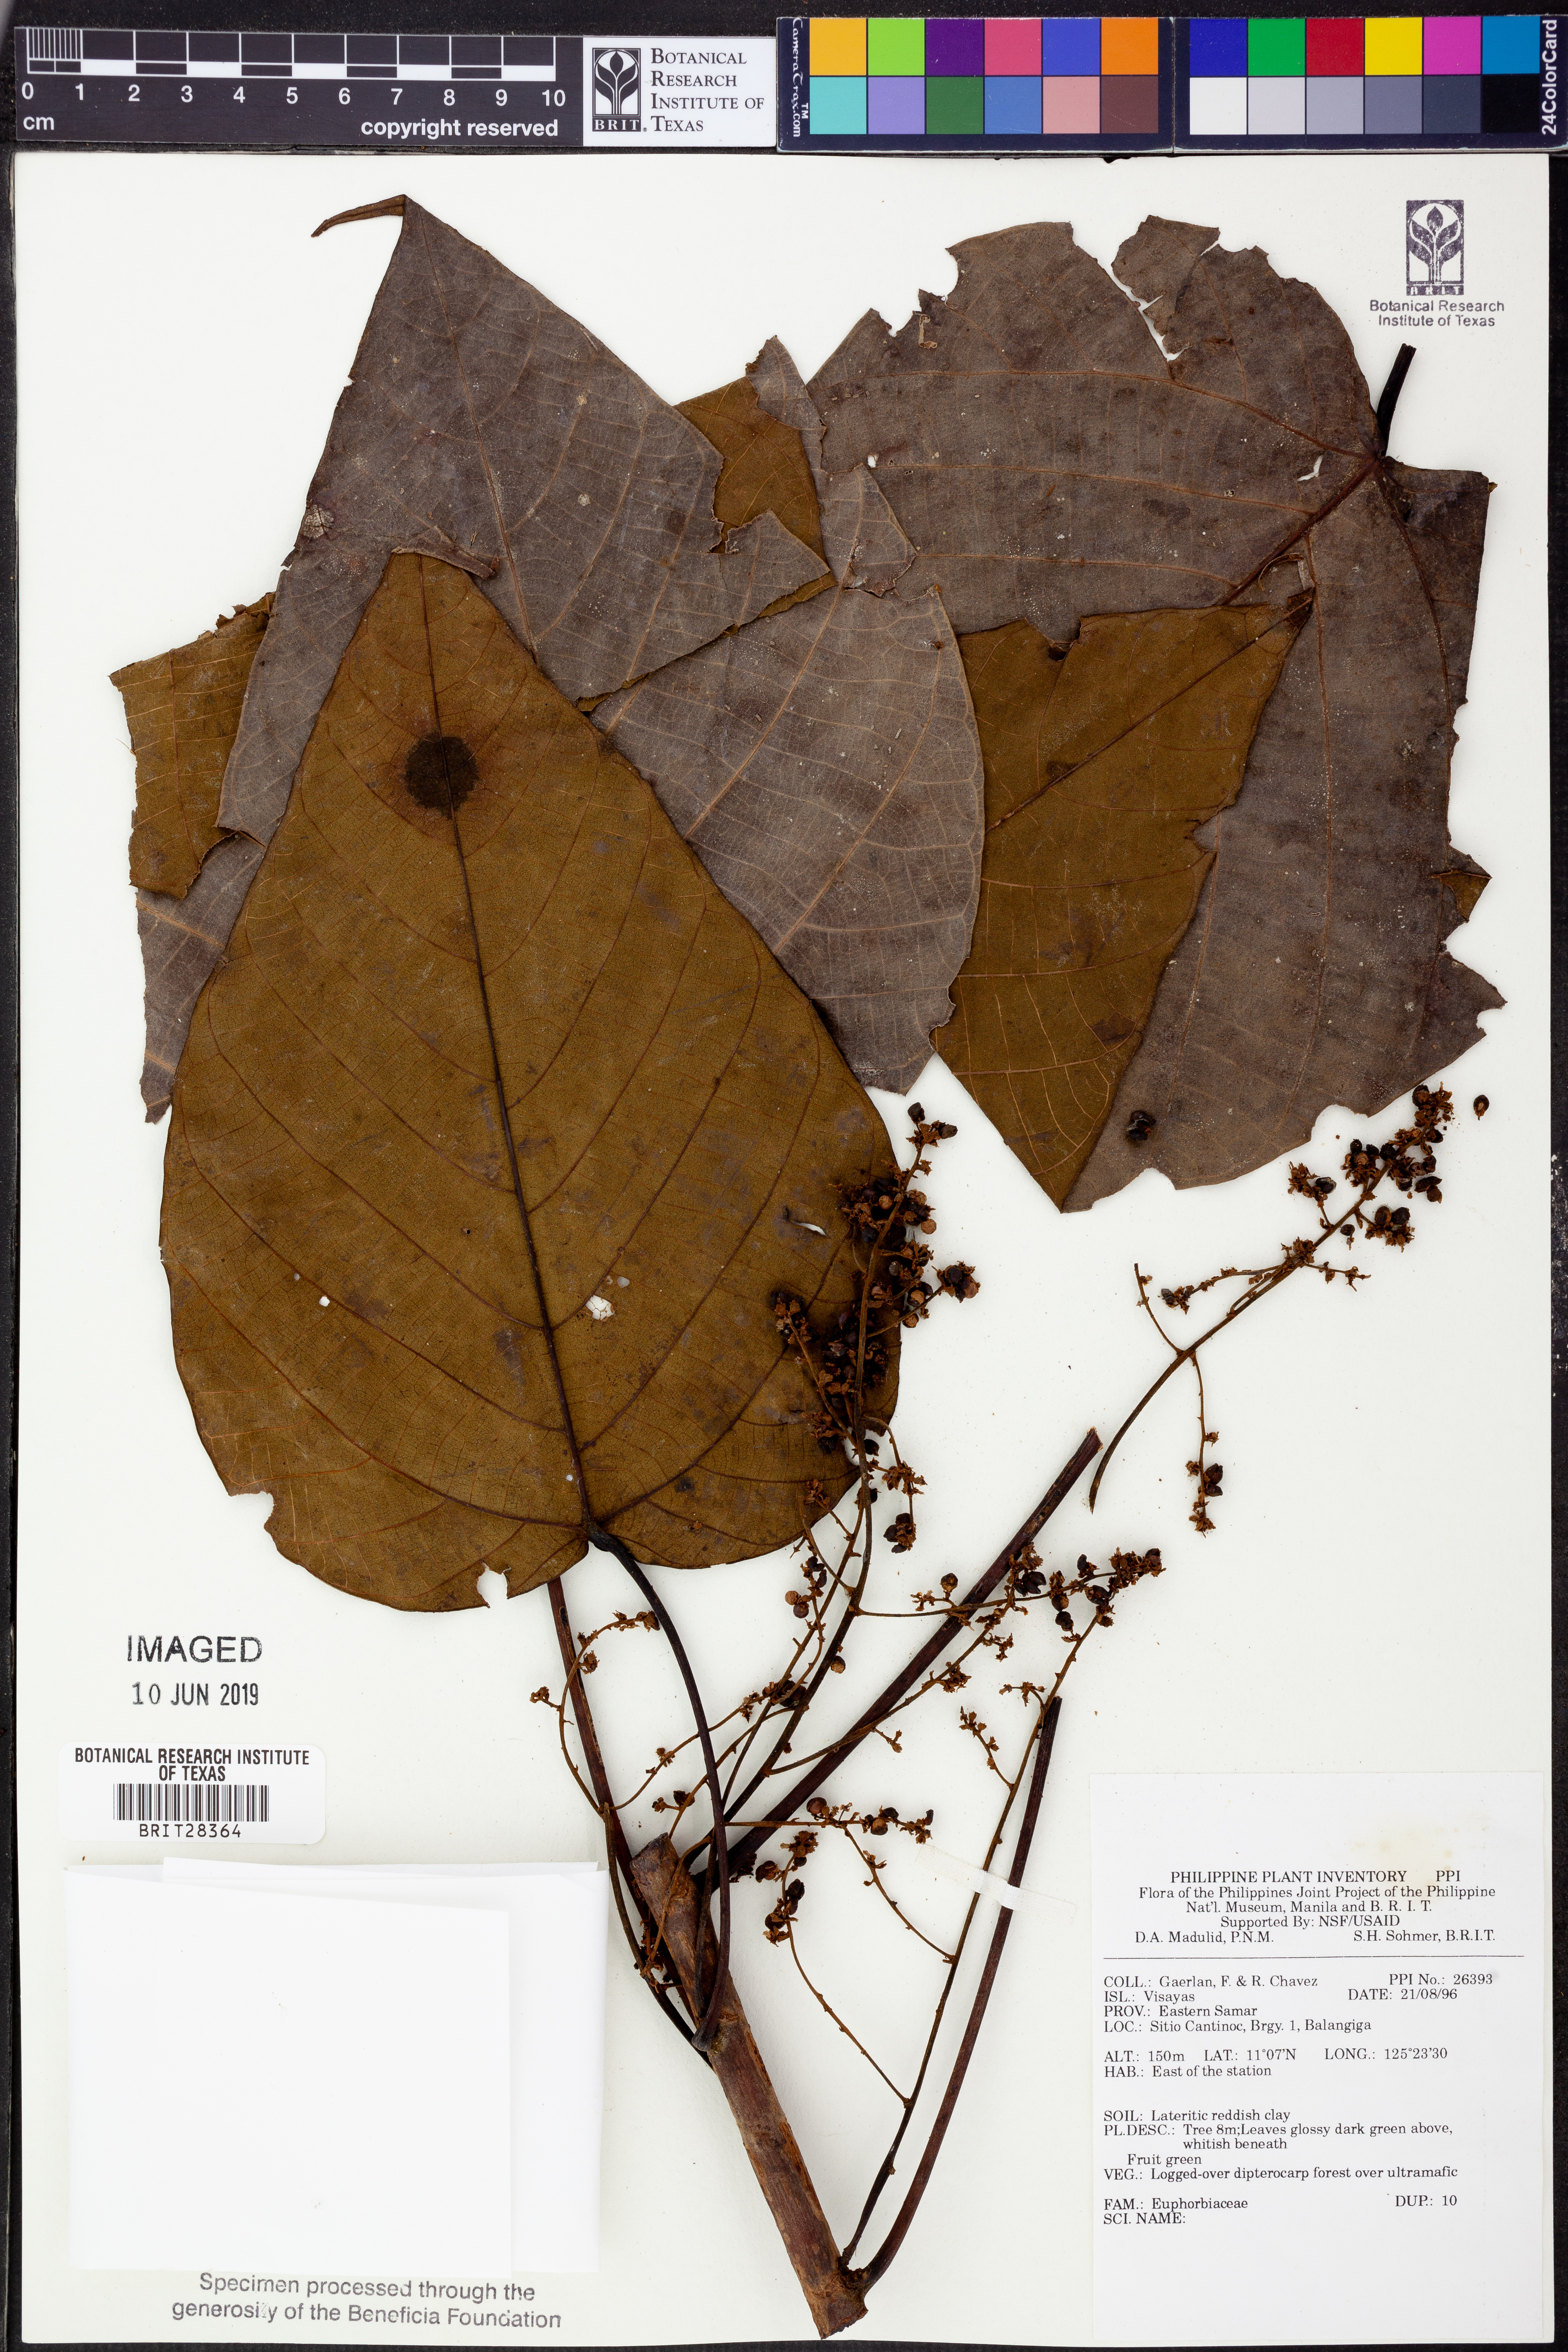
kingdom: Plantae
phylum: Tracheophyta
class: Magnoliopsida
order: Malpighiales
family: Euphorbiaceae
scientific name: Euphorbiaceae
